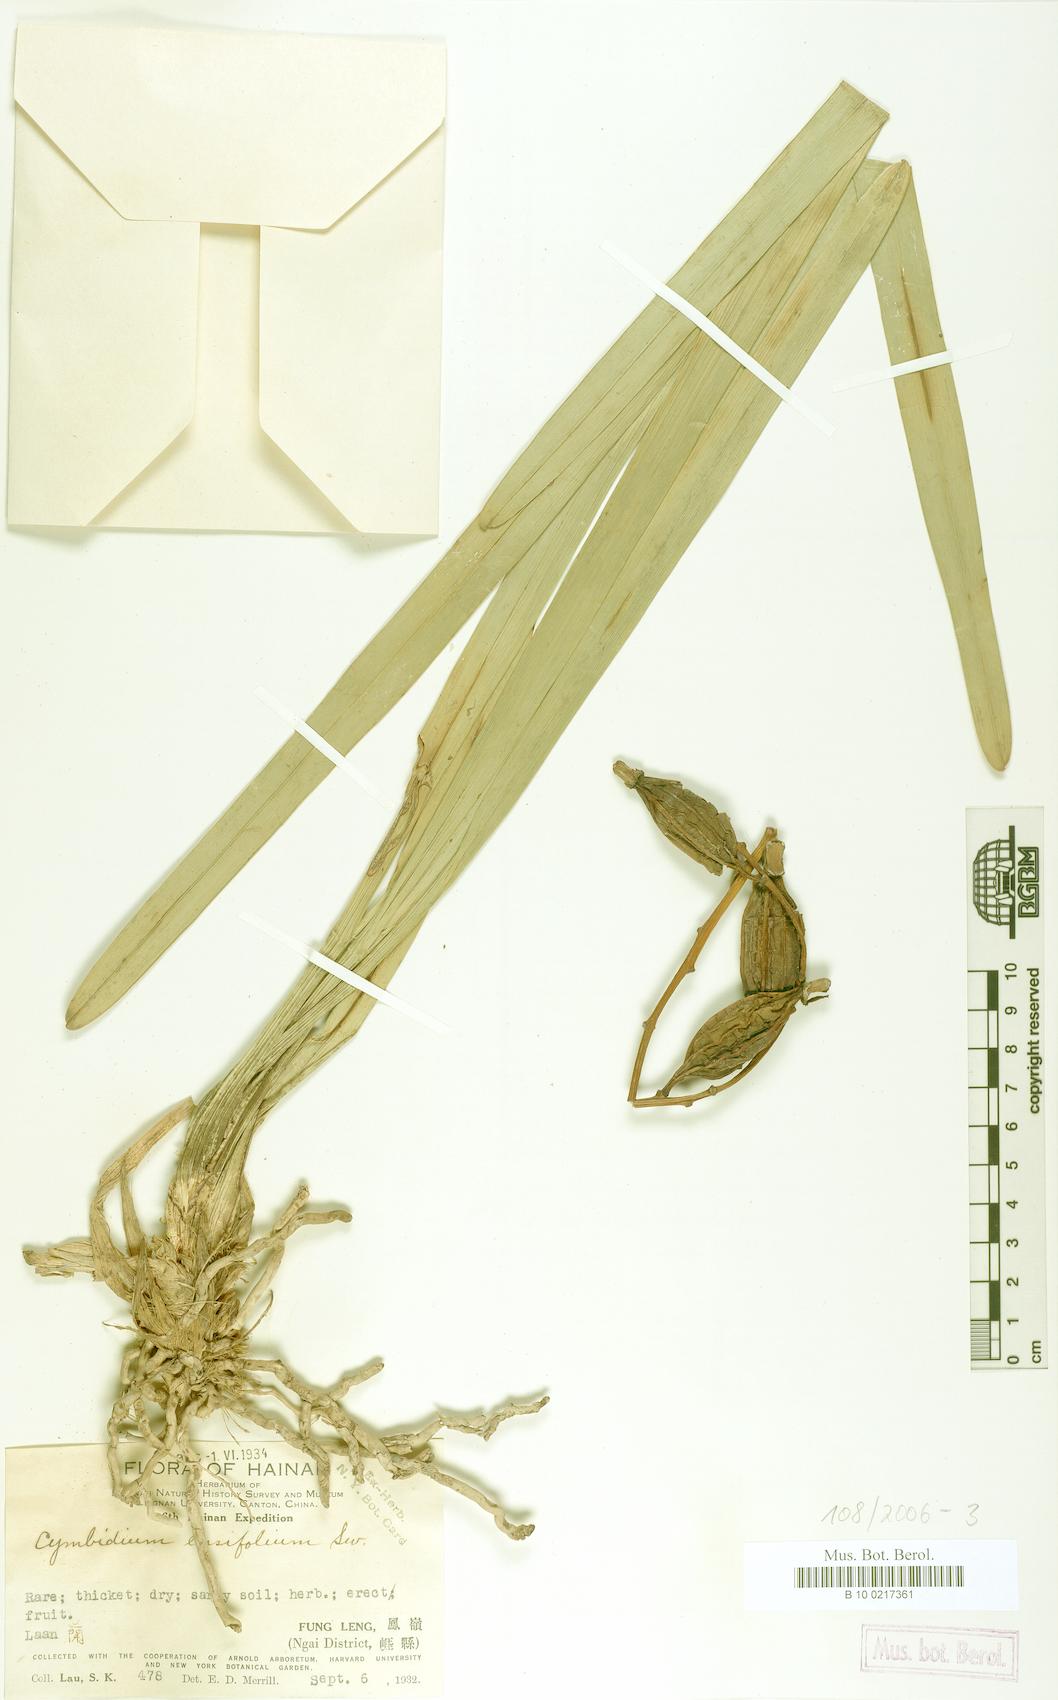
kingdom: Plantae
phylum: Tracheophyta
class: Liliopsida
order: Asparagales
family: Orchidaceae
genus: Cymbidium
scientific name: Cymbidium ensifolium
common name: Fukien-orchid
